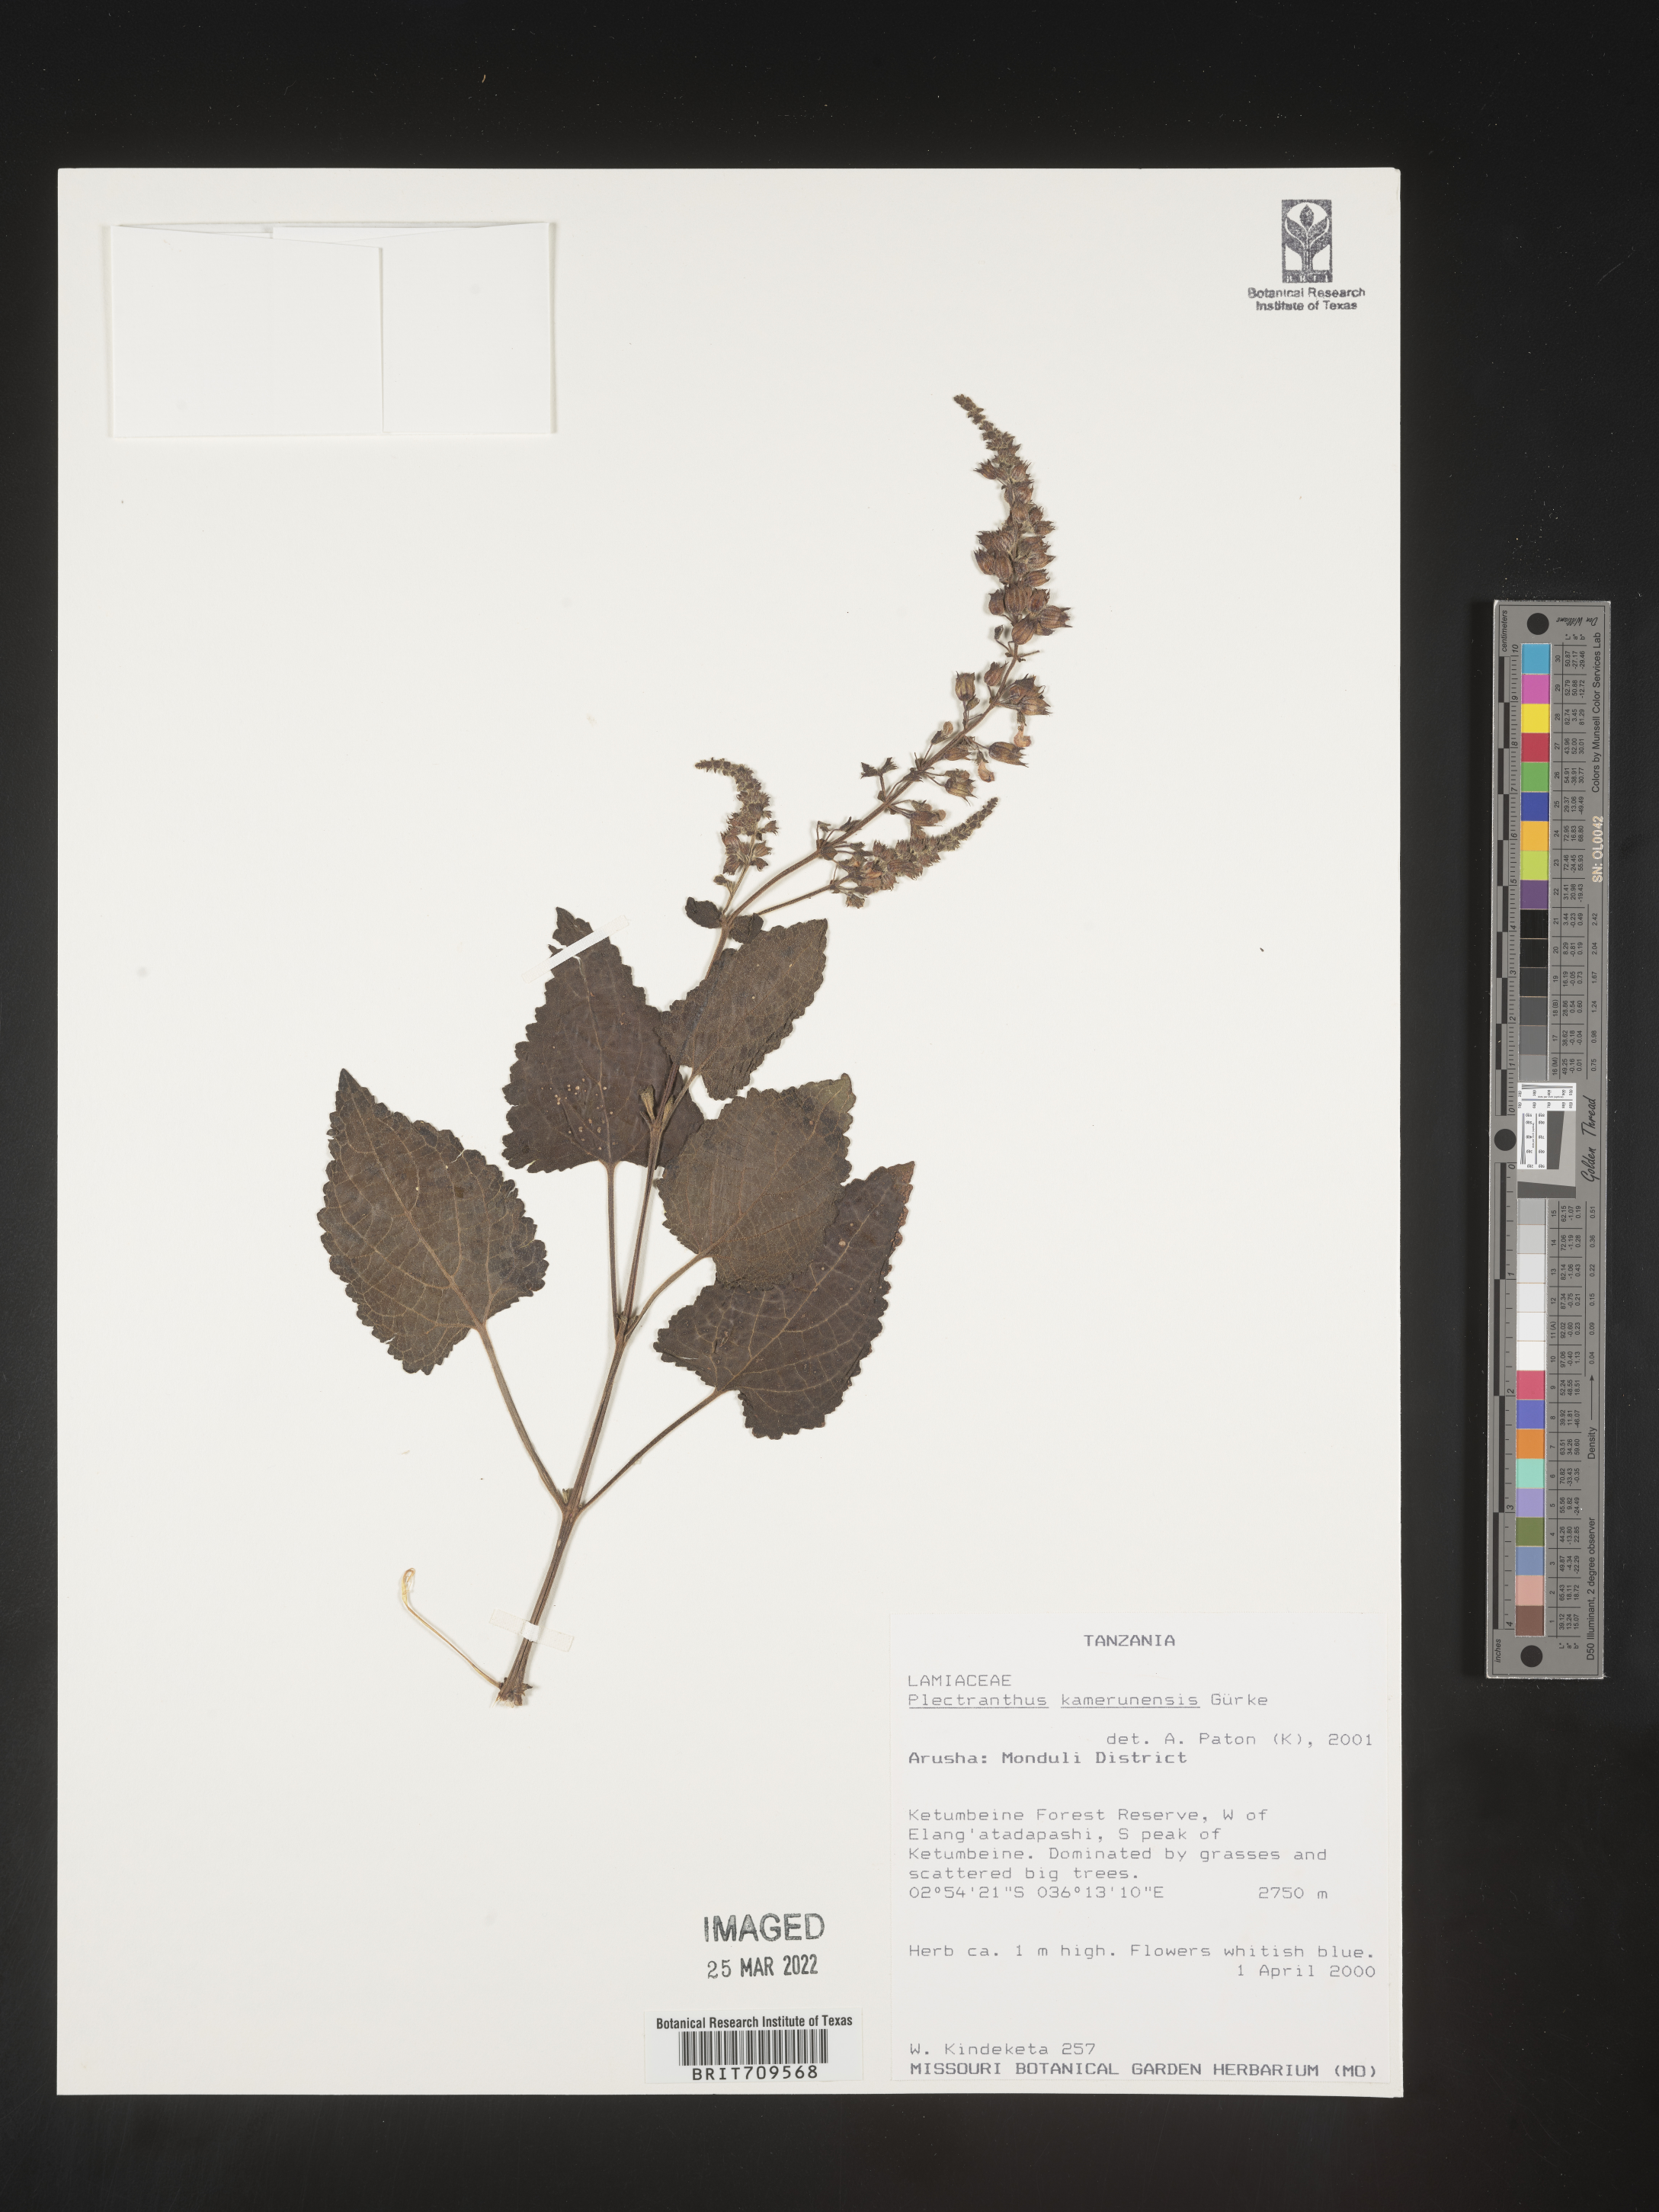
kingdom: Plantae
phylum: Tracheophyta
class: Magnoliopsida
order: Lamiales
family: Lamiaceae
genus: Plectranthus
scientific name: Plectranthus
